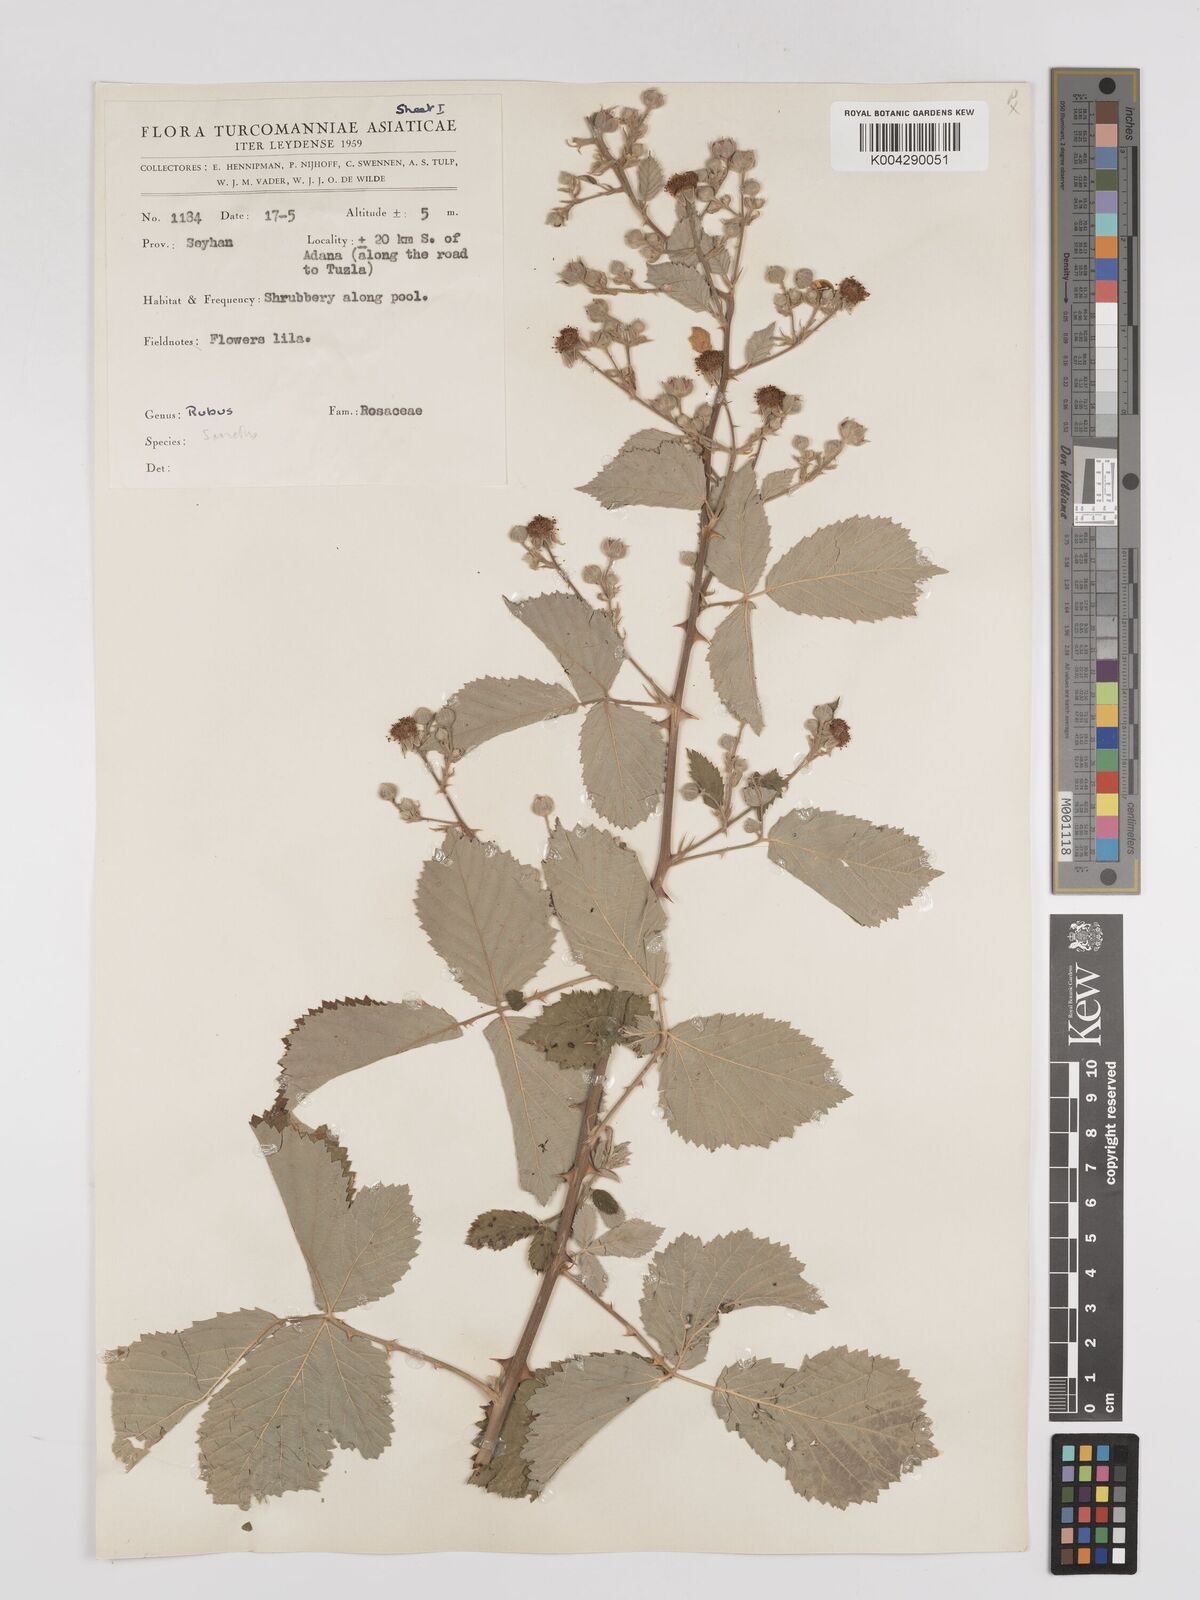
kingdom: Plantae
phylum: Tracheophyta
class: Magnoliopsida
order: Rosales
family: Rosaceae
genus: Rubus
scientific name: Rubus sanctus
